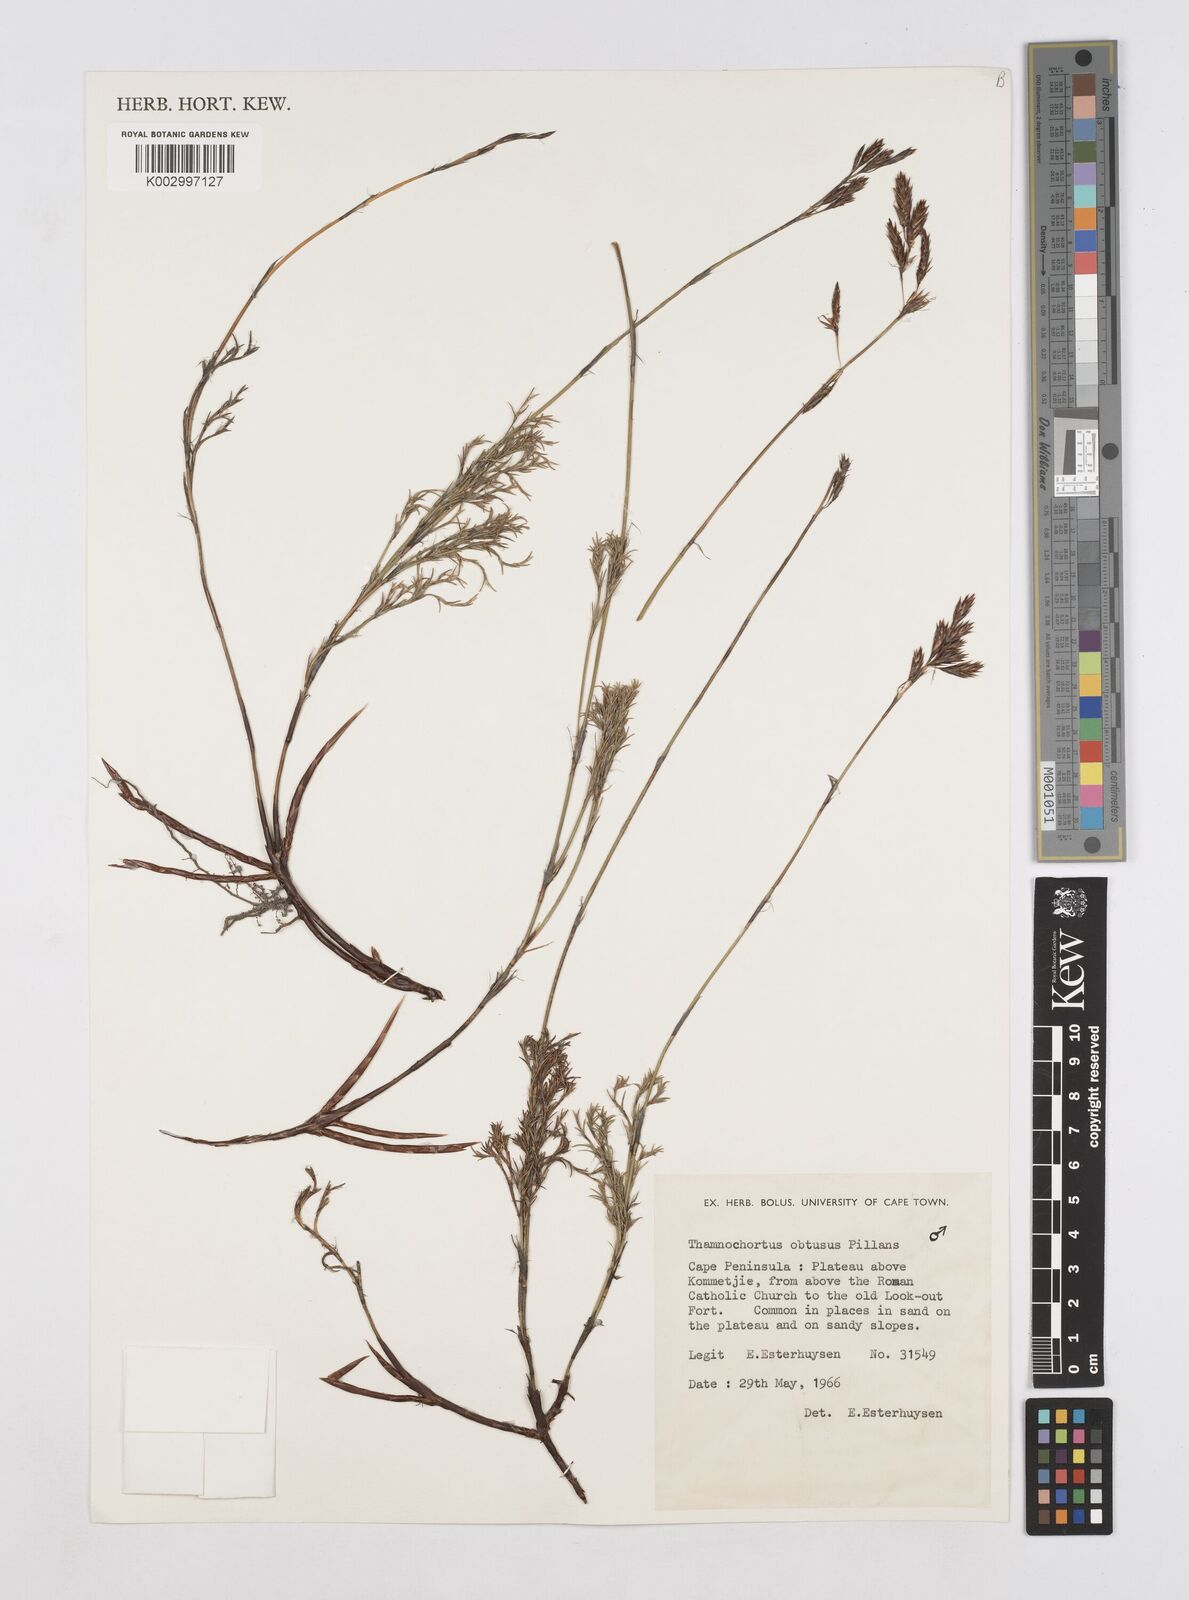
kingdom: Plantae
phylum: Tracheophyta
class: Liliopsida
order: Poales
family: Restionaceae
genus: Thamnochortus
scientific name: Thamnochortus obtusus
